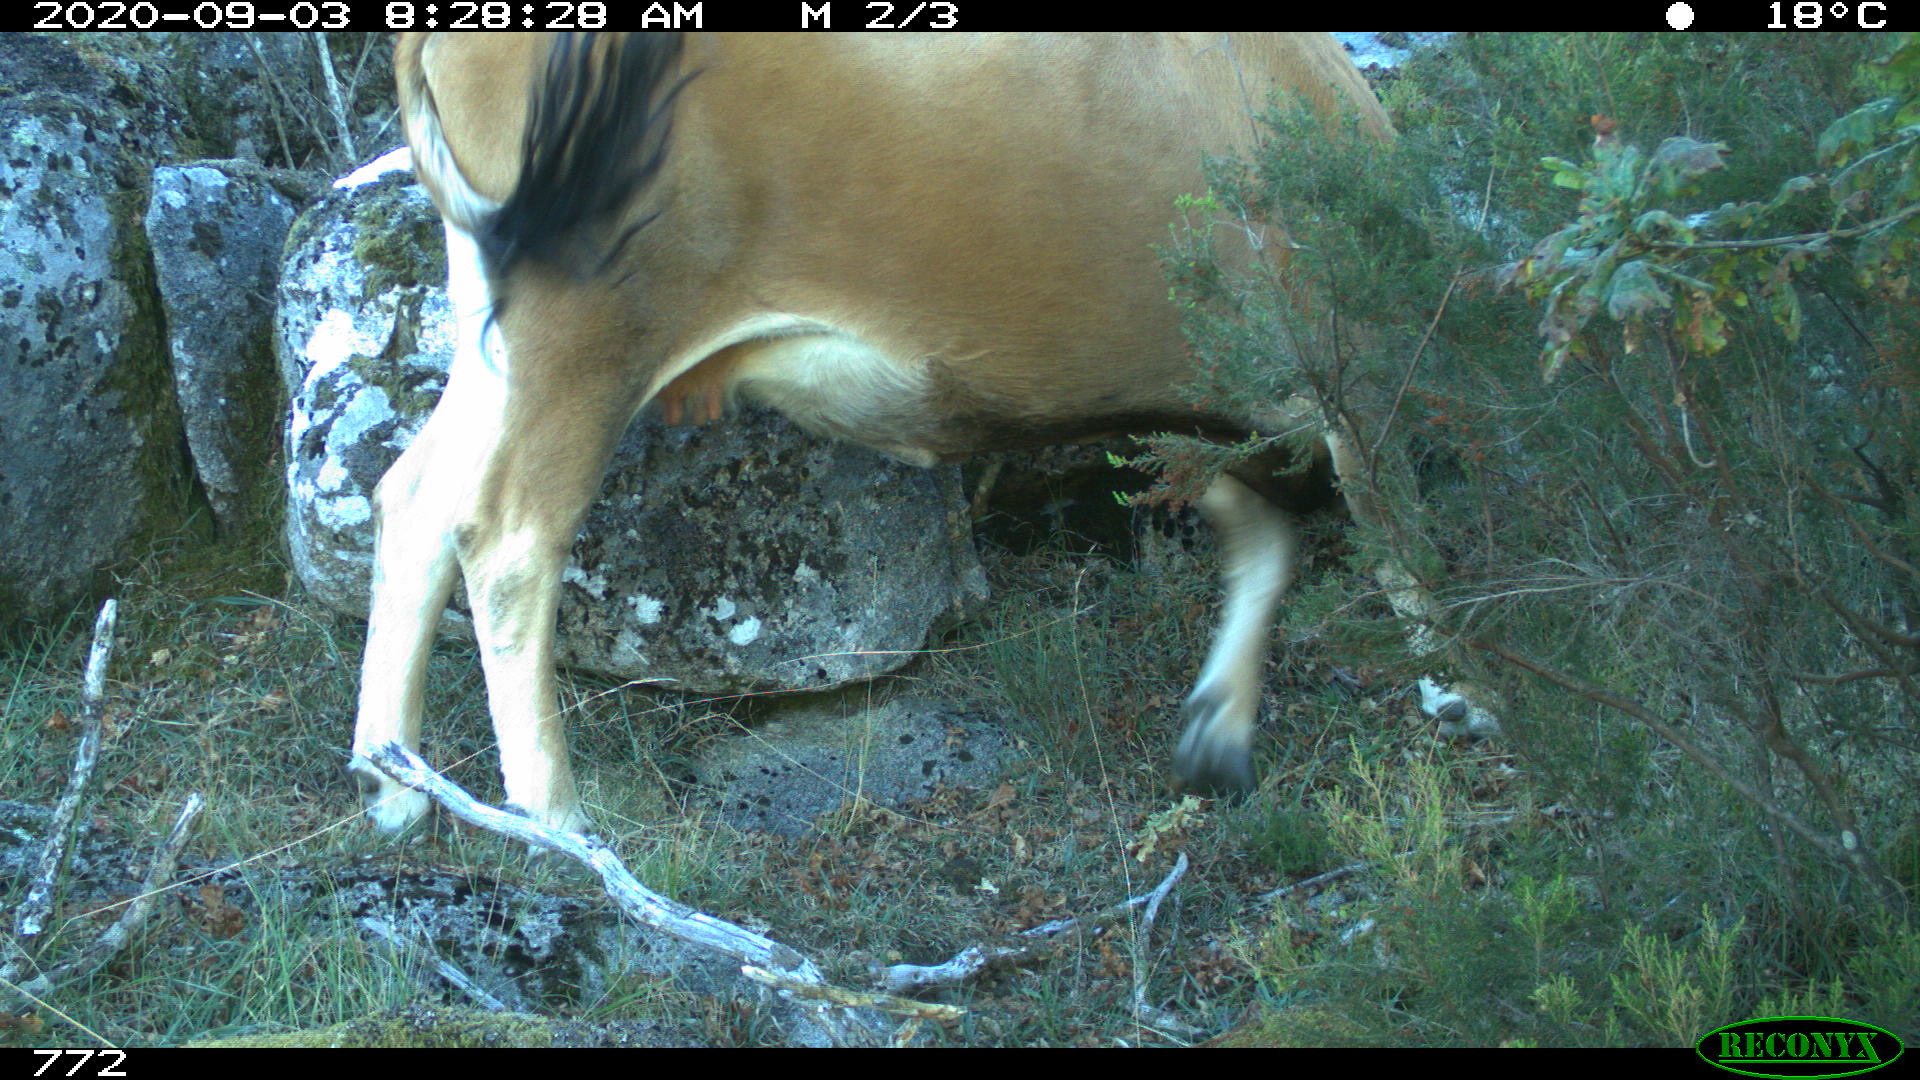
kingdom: Animalia
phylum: Chordata
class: Mammalia
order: Artiodactyla
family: Bovidae
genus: Bos
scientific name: Bos taurus
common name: Domesticated cattle
